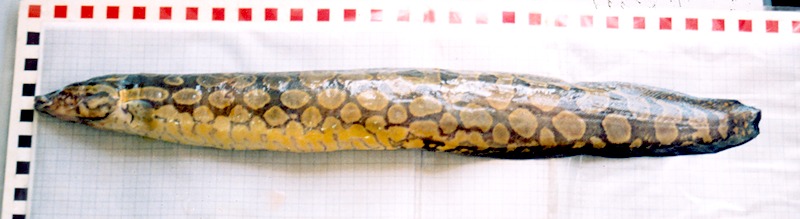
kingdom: Animalia
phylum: Chordata
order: Synbranchiformes
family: Mastacembelidae
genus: Mastacembelus
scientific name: Mastacembelus favus
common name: Flower spiny eel
